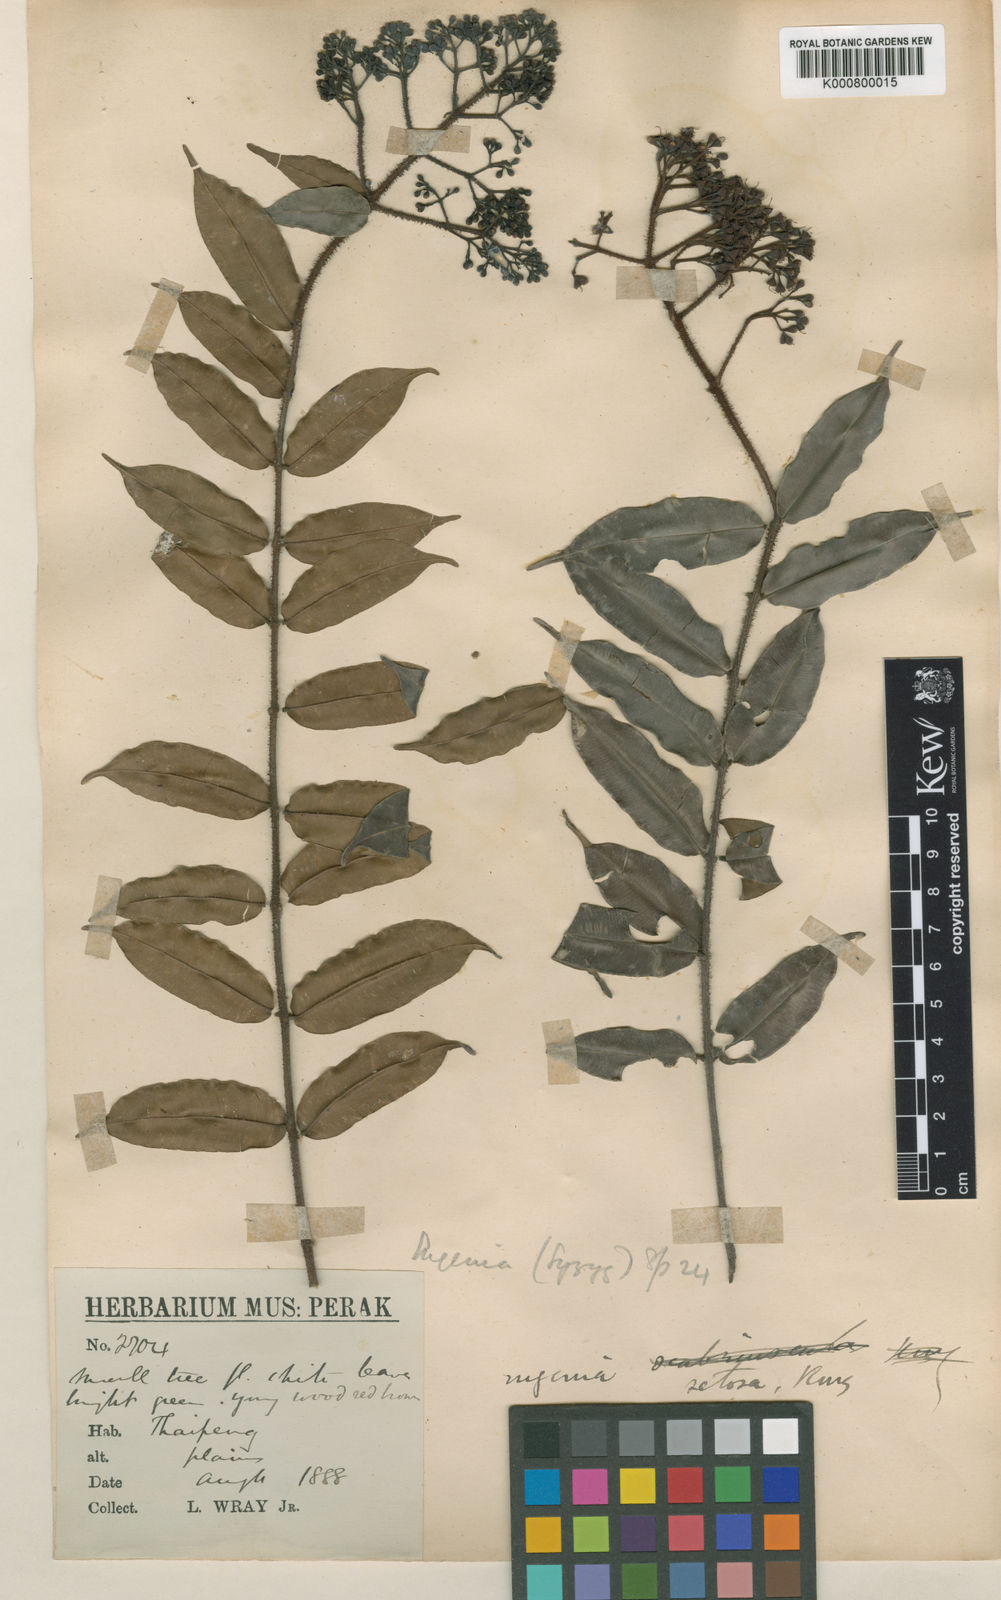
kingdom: Plantae
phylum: Tracheophyta
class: Magnoliopsida
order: Myrtales
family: Myrtaceae
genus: Syzygium
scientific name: Syzygium setosum
